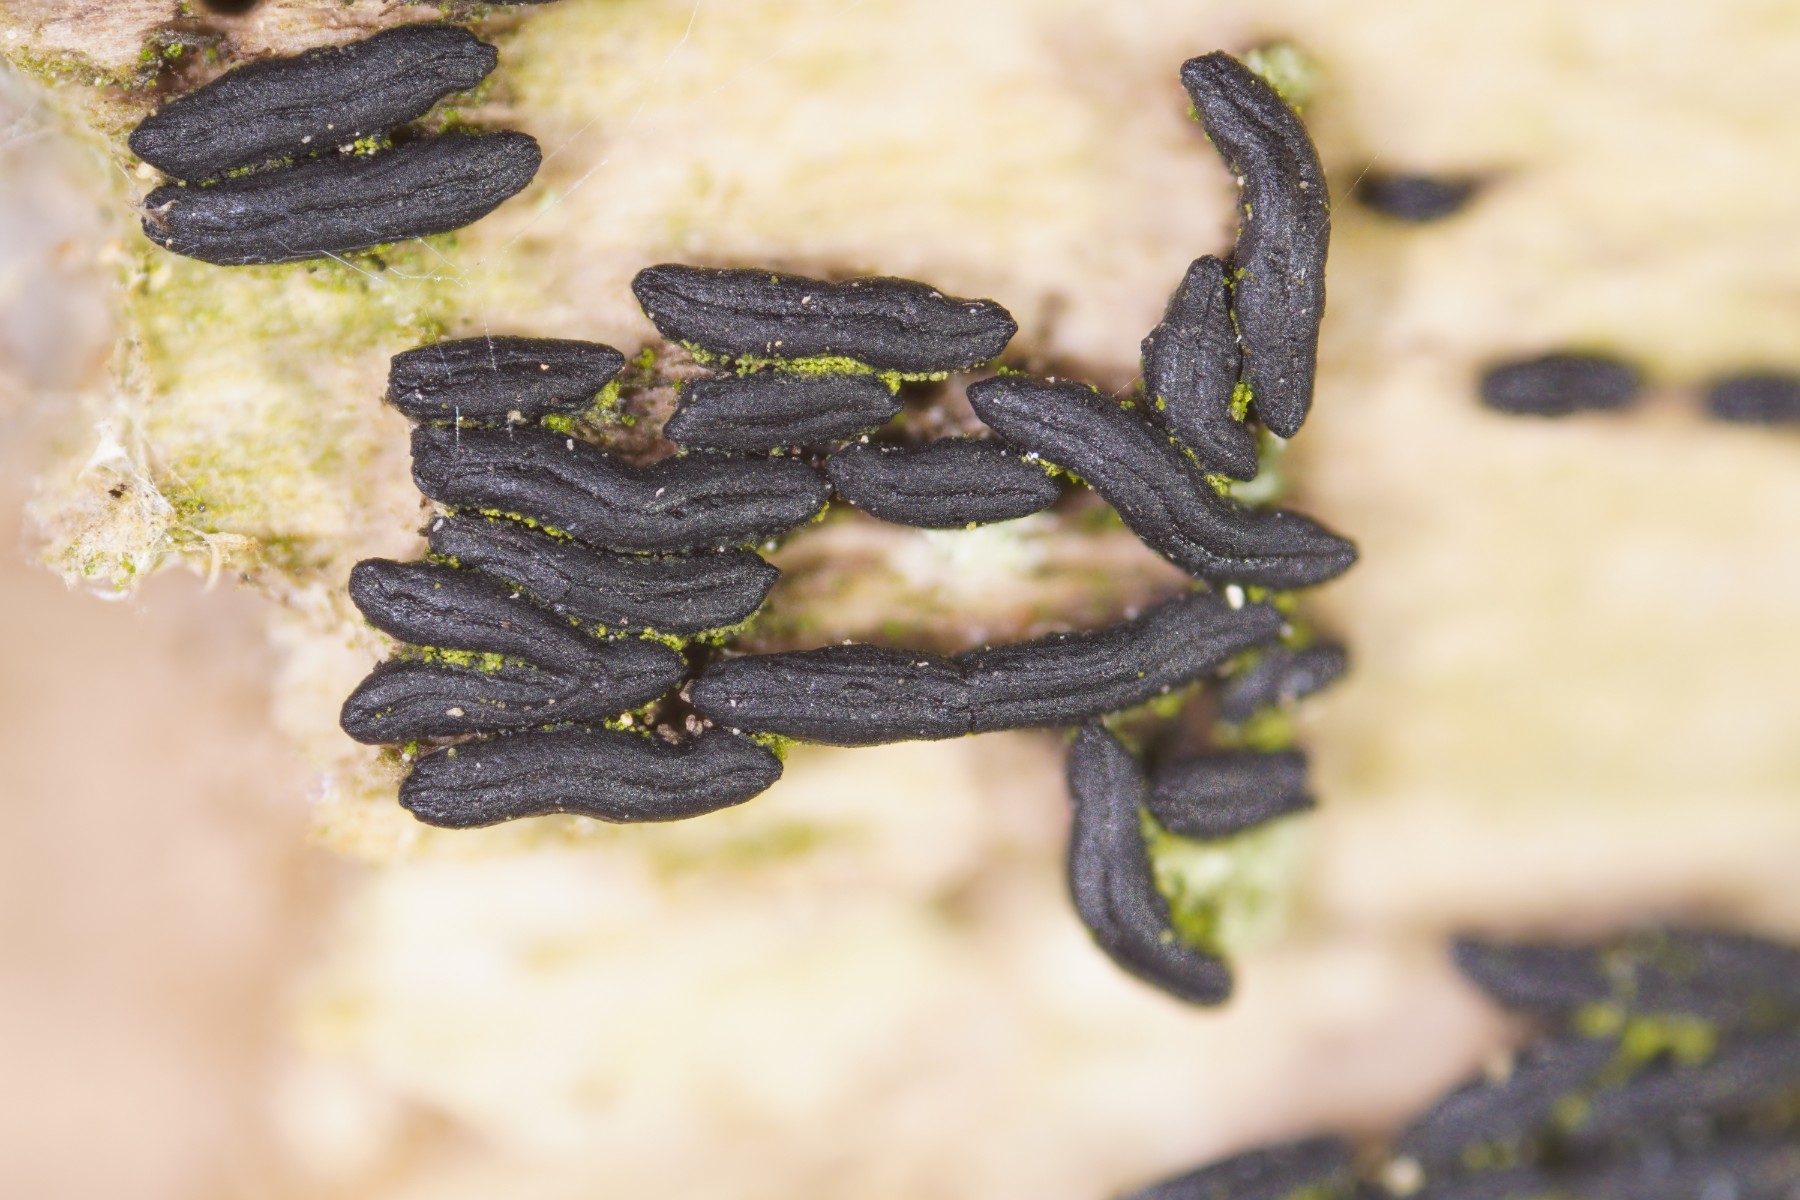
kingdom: Fungi
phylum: Ascomycota
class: Dothideomycetes
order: Hysteriales
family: Hysteriaceae
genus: Hysterium
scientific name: Hysterium acuminatum
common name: almindelig kulmund
